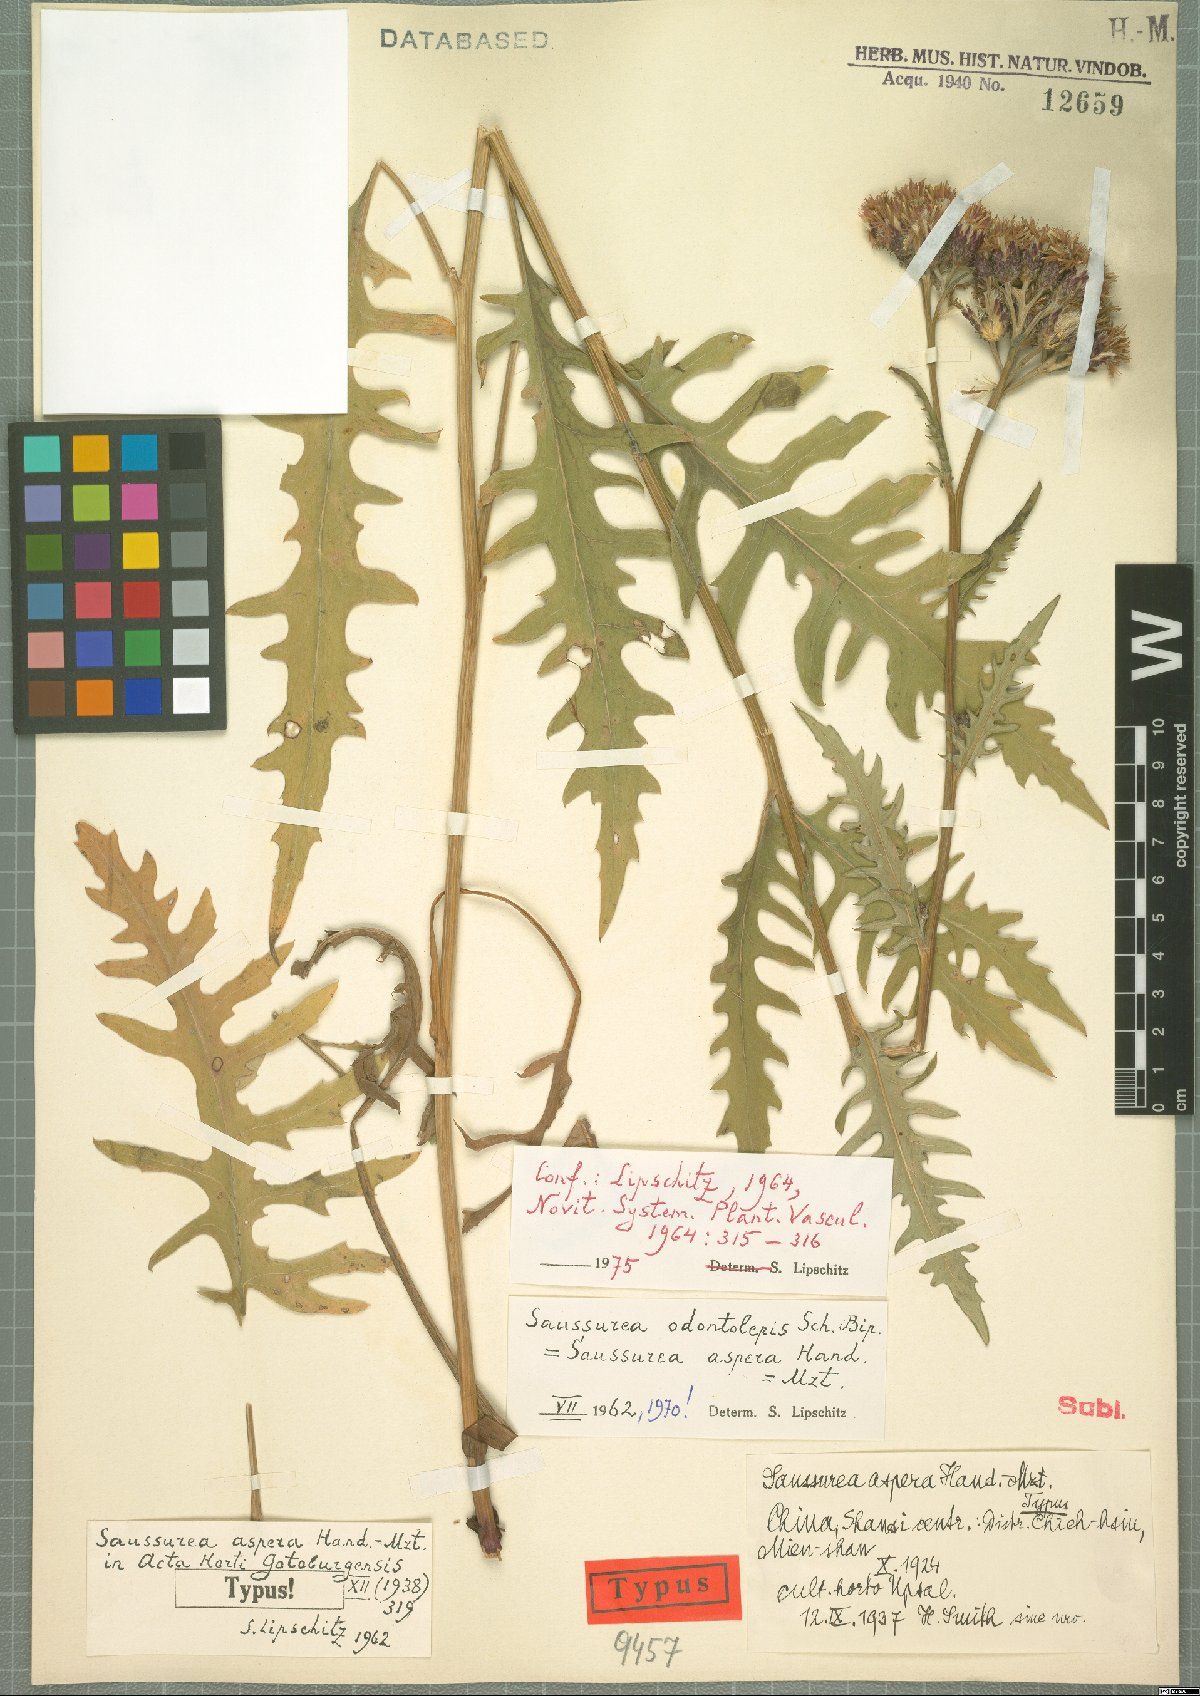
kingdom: Plantae
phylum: Tracheophyta
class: Magnoliopsida
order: Asterales
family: Asteraceae
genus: Saussurea
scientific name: Saussurea odontolepis
